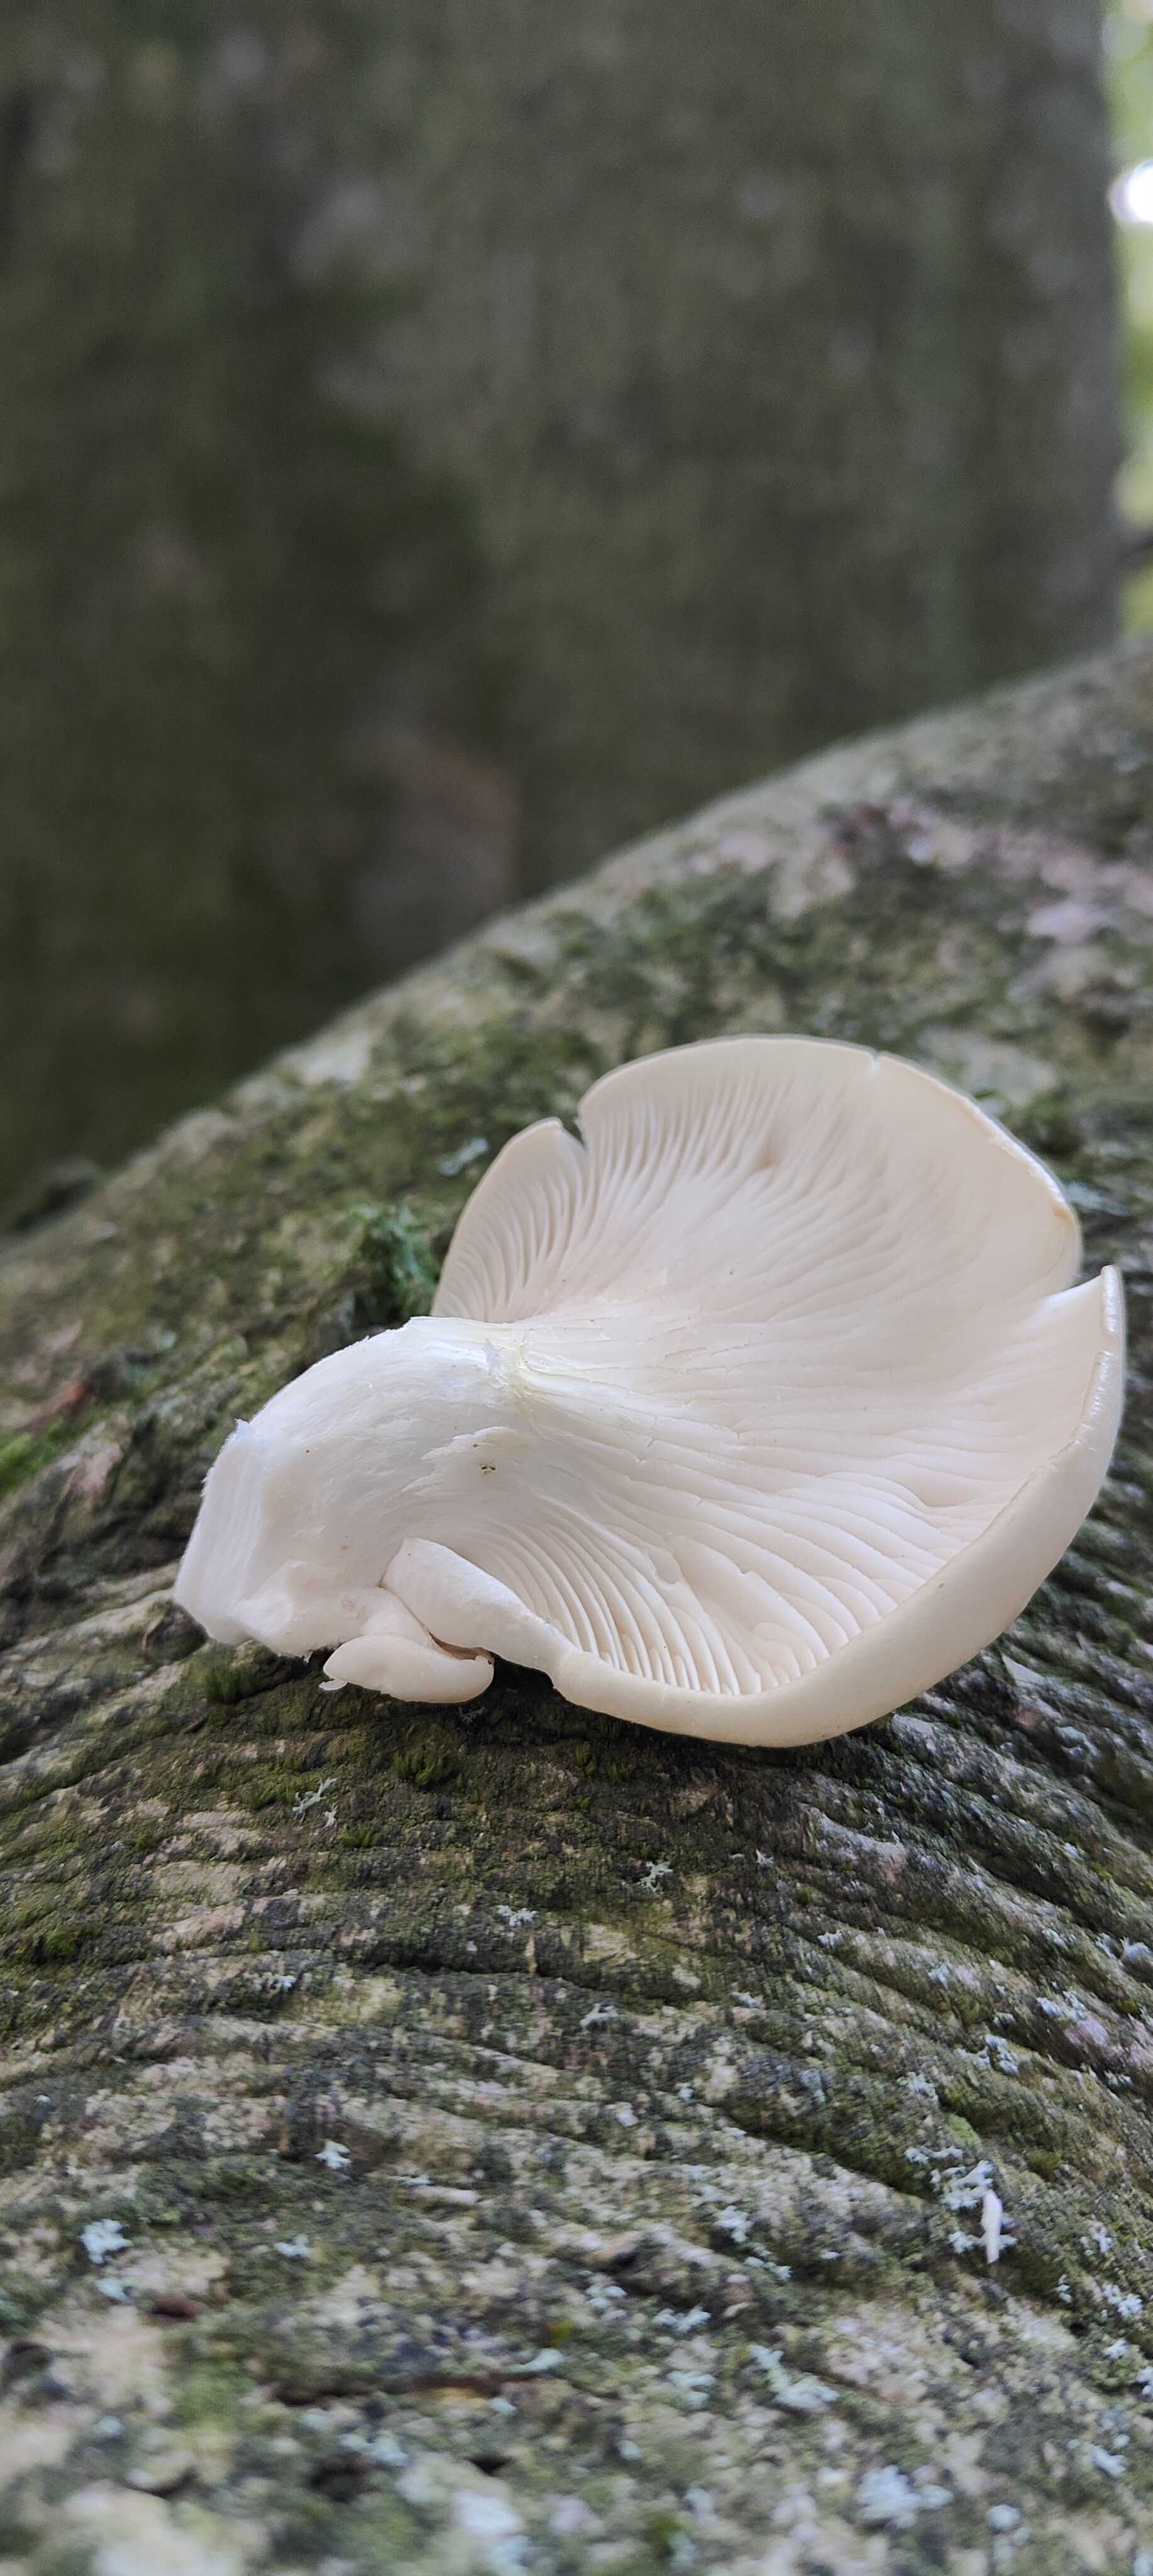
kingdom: Fungi
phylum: Basidiomycota
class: Agaricomycetes
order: Agaricales
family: Pleurotaceae
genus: Pleurotus
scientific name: Pleurotus pulmonarius
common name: sommer-østershat
